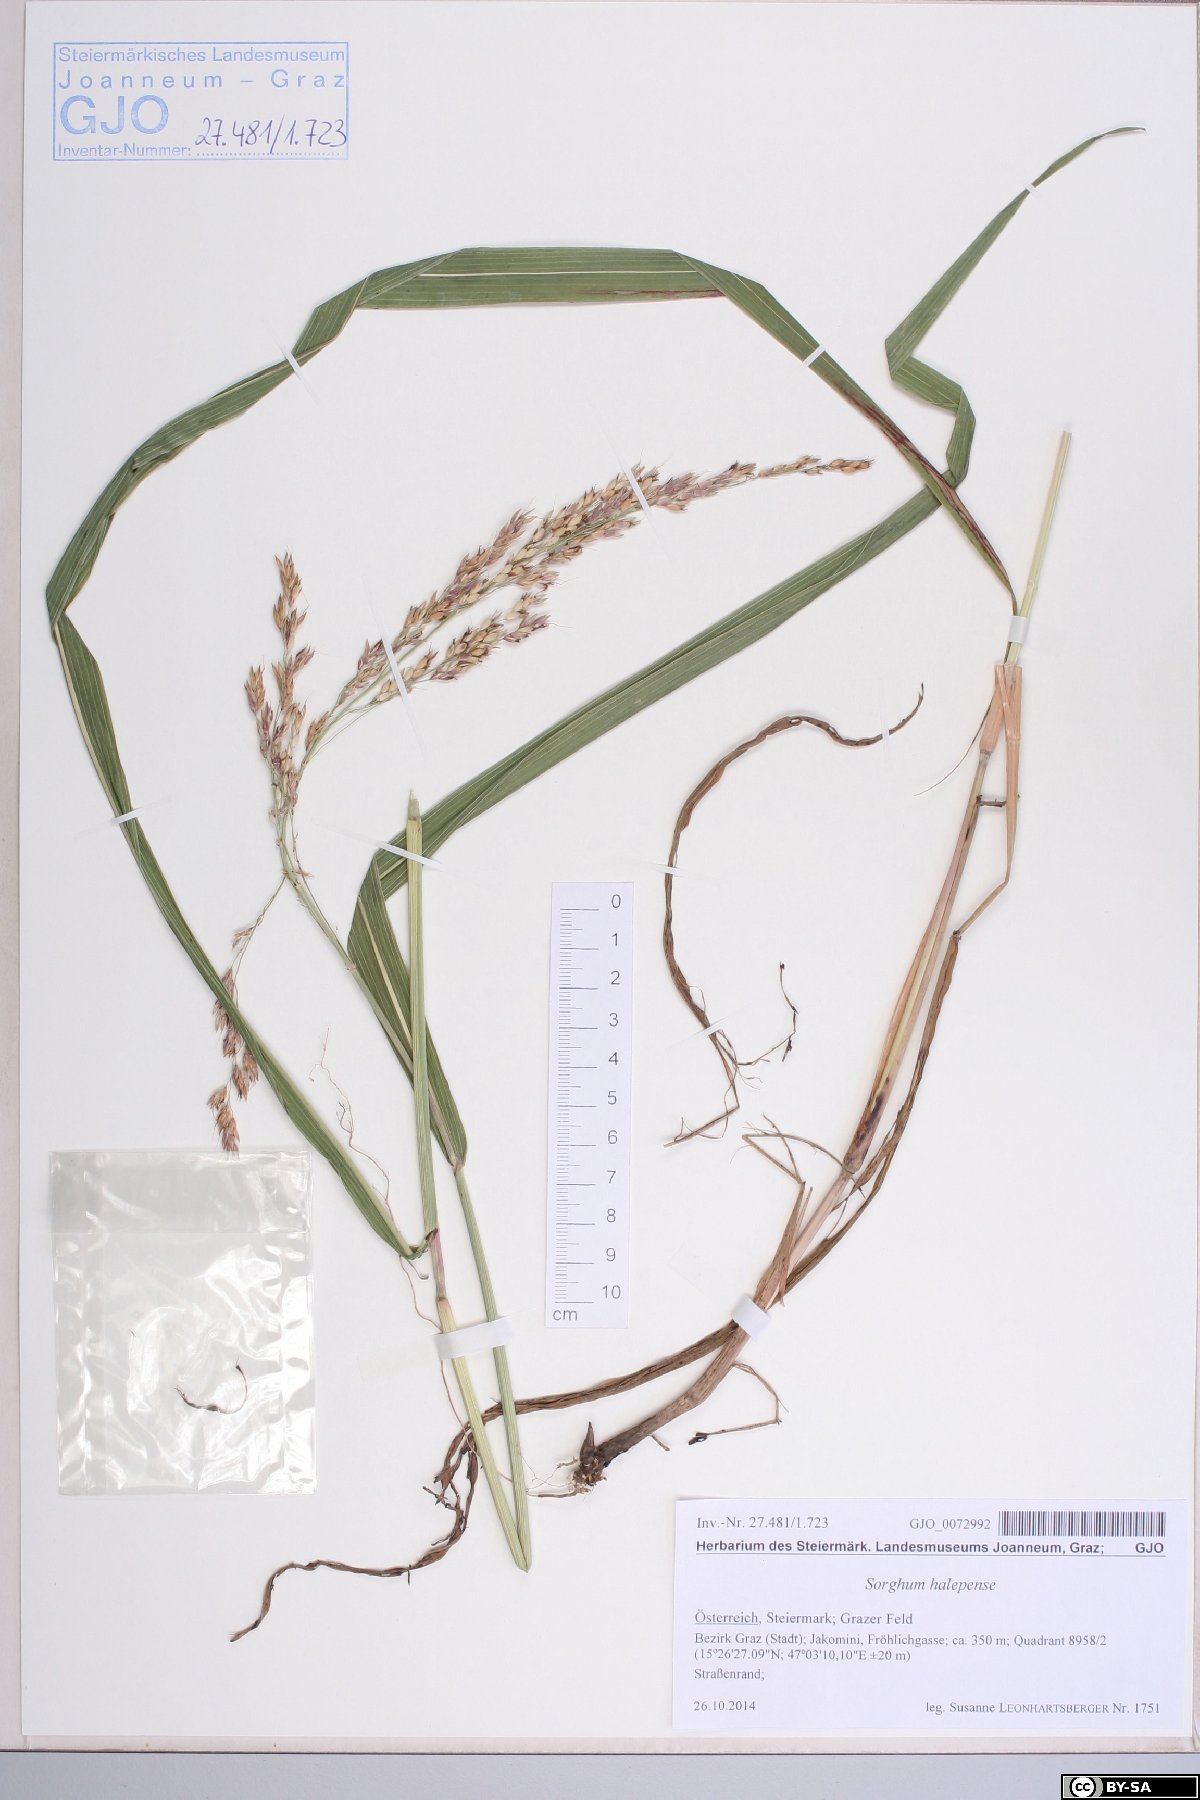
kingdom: Plantae
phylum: Tracheophyta
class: Liliopsida
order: Poales
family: Poaceae
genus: Sorghum
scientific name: Sorghum halepense
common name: Johnson-grass
